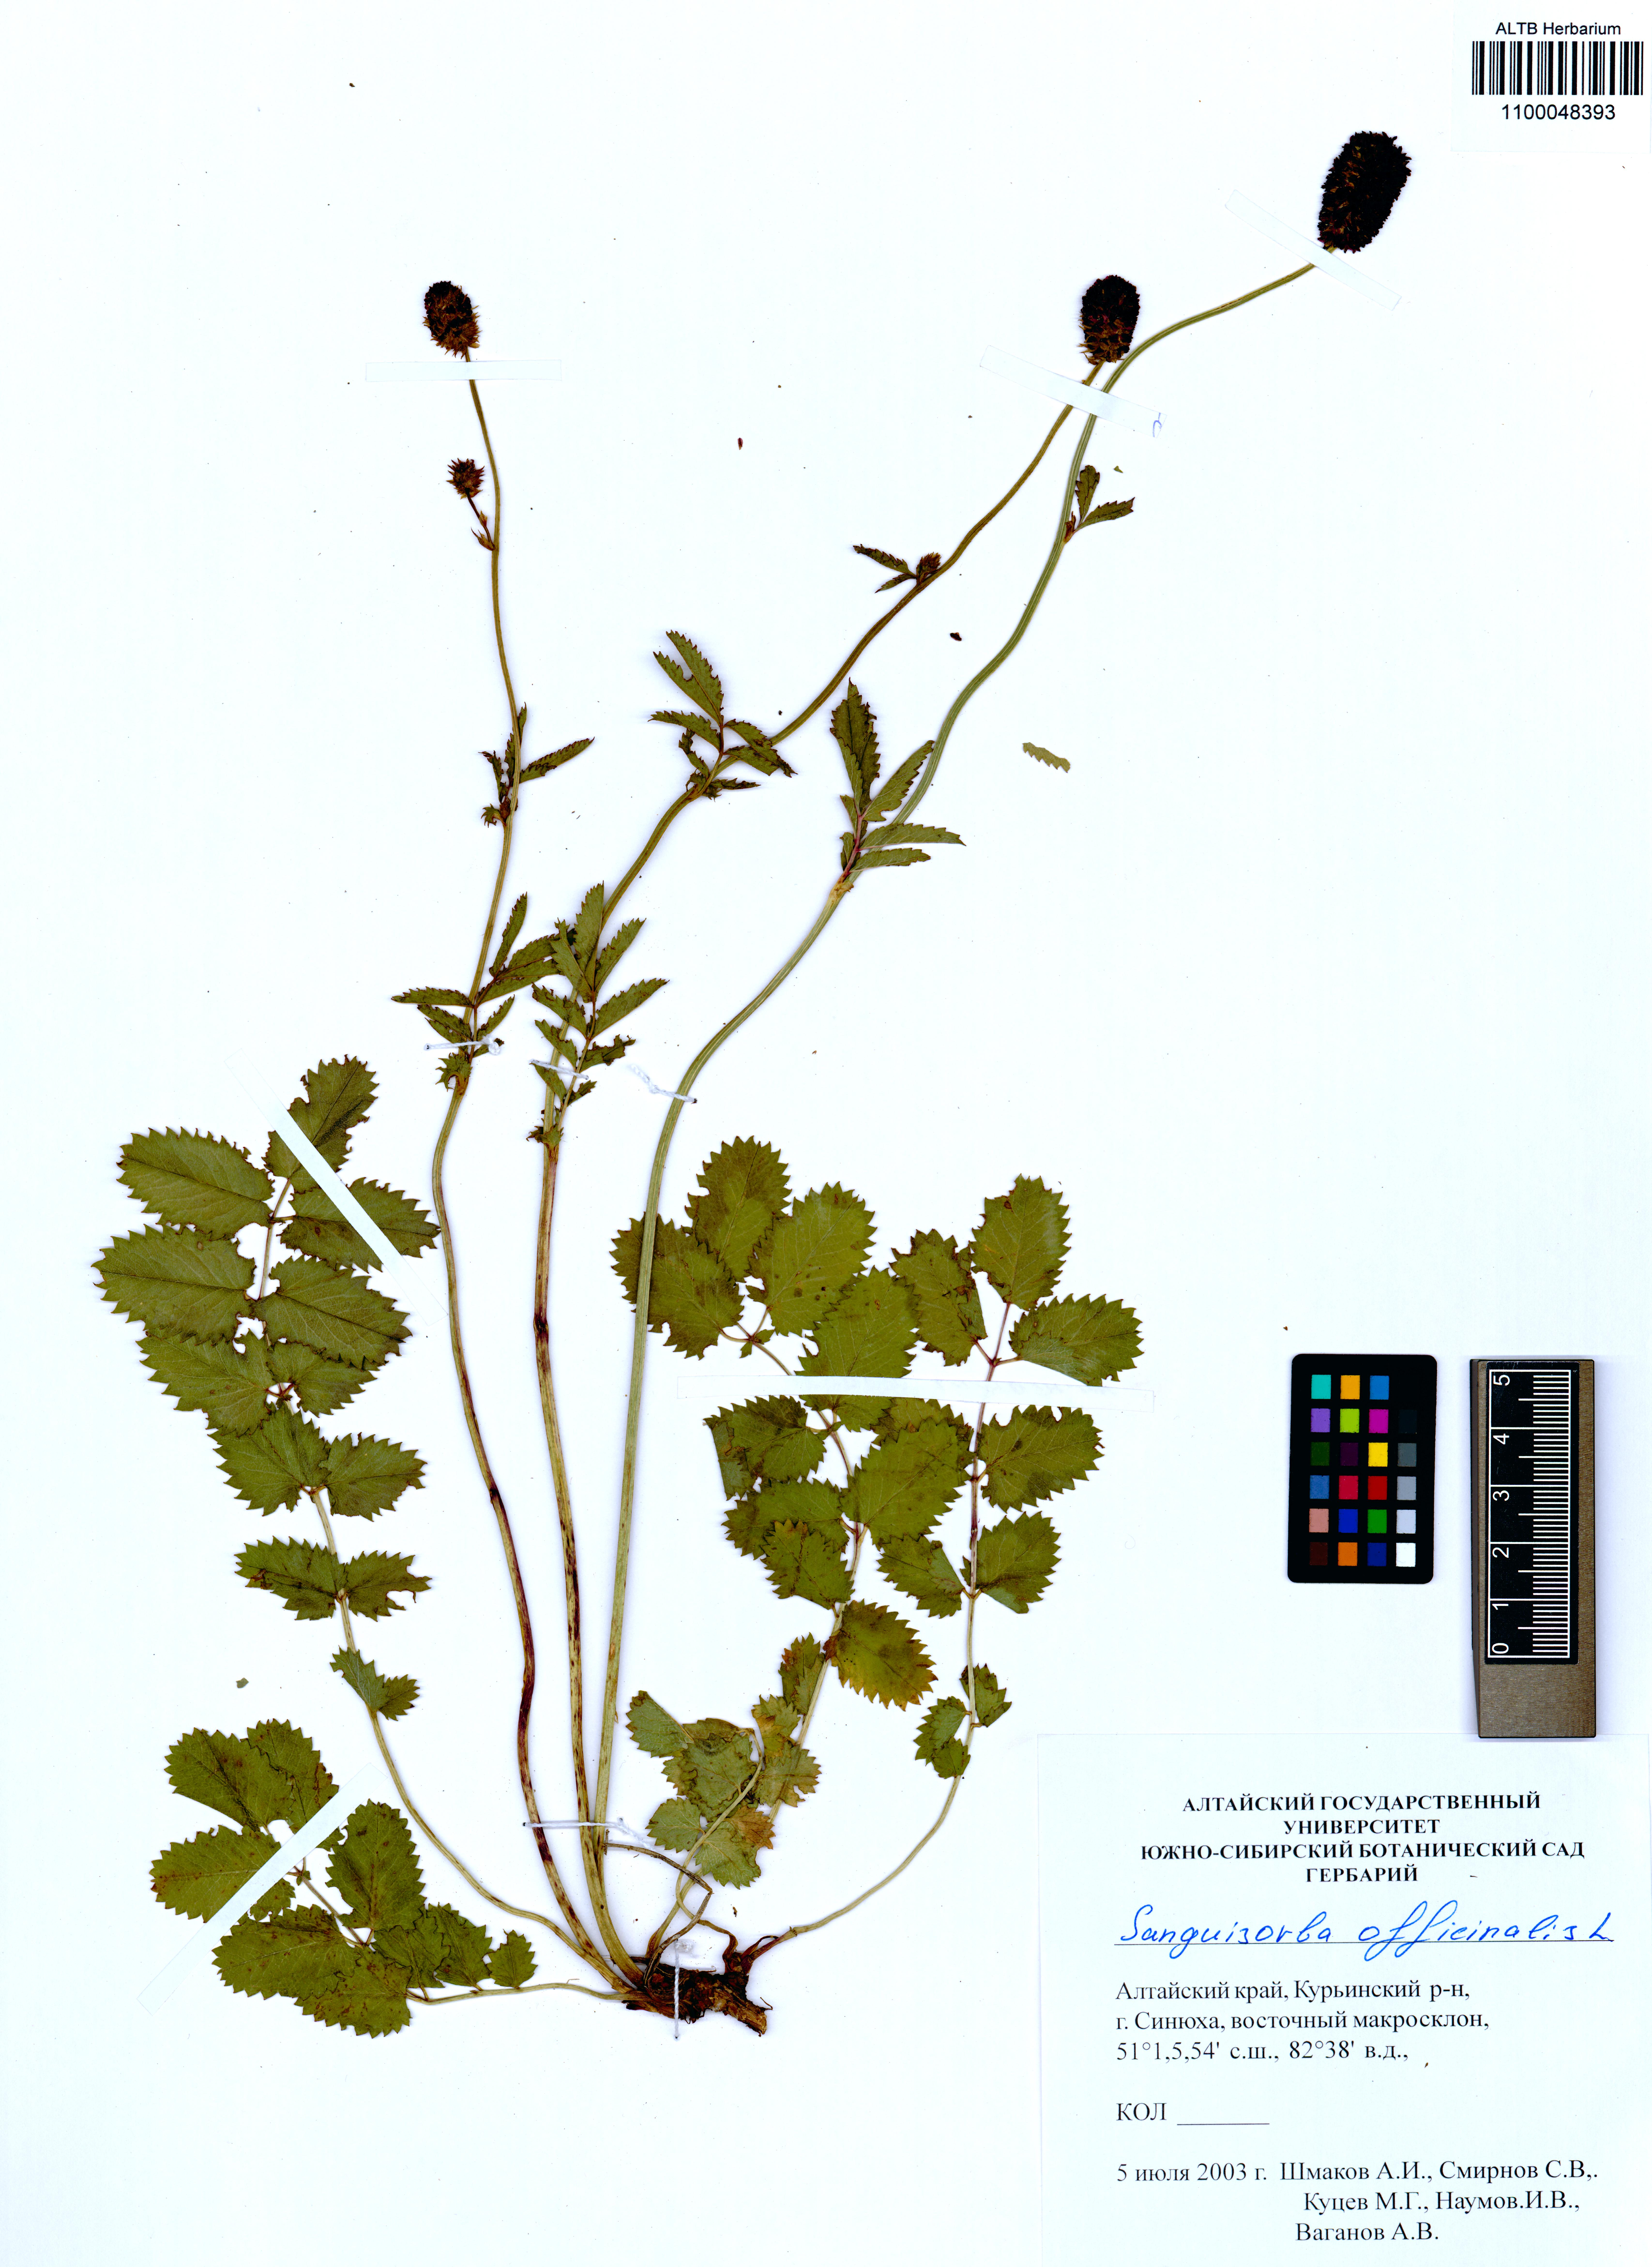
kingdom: Plantae
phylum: Tracheophyta
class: Magnoliopsida
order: Rosales
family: Rosaceae
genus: Sanguisorba
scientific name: Sanguisorba officinalis
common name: Great burnet
